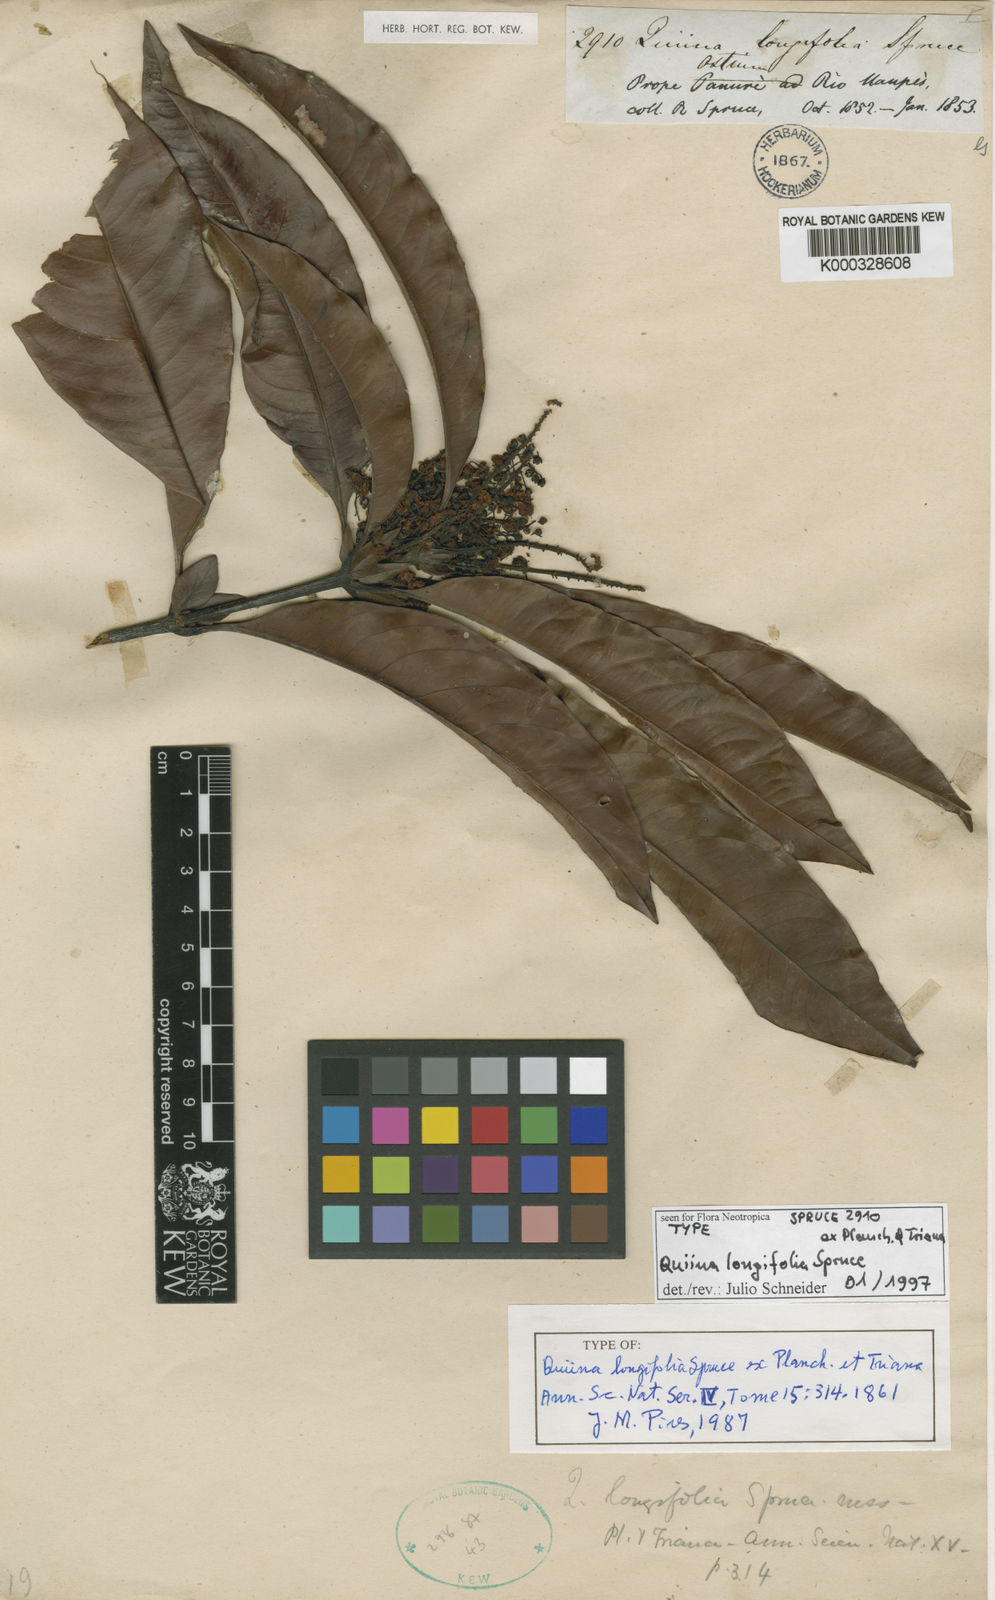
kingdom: Plantae
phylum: Tracheophyta
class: Magnoliopsida
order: Malpighiales
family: Quiinaceae
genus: Quiina
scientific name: Quiina longifolia
